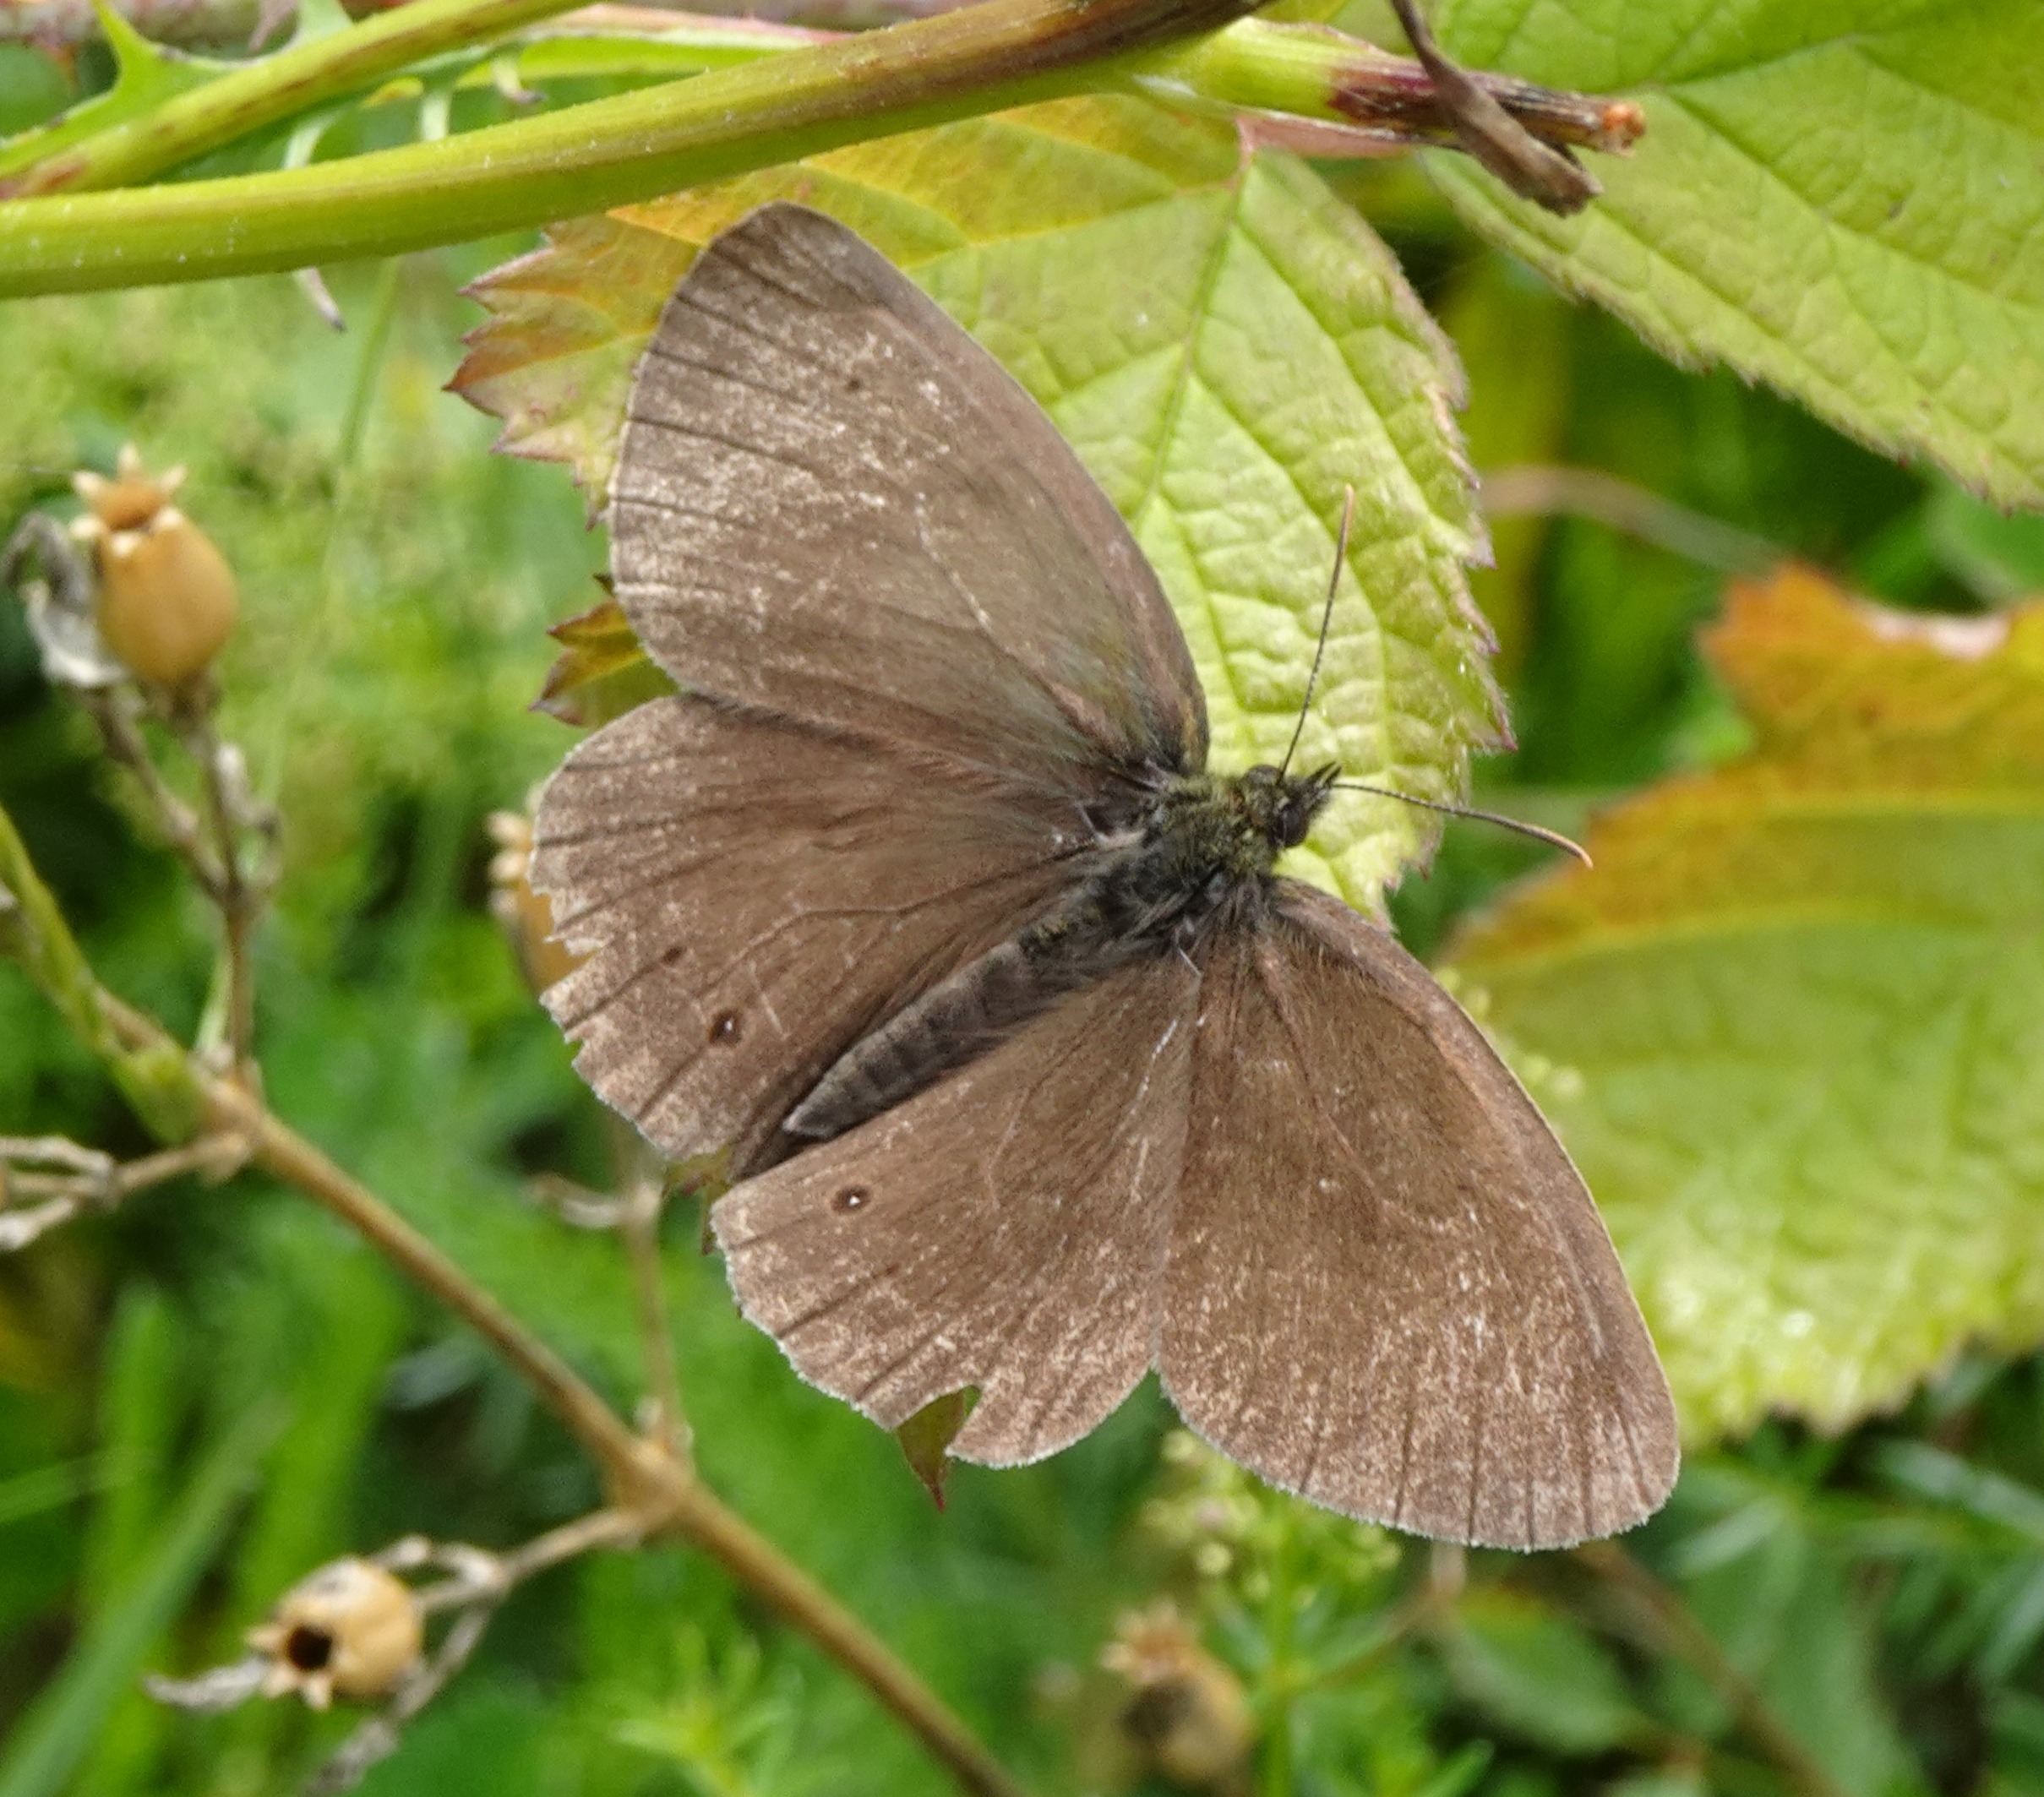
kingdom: Animalia
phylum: Arthropoda
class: Insecta
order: Lepidoptera
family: Nymphalidae
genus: Aphantopus
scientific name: Aphantopus hyperantus
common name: Engrandøje
